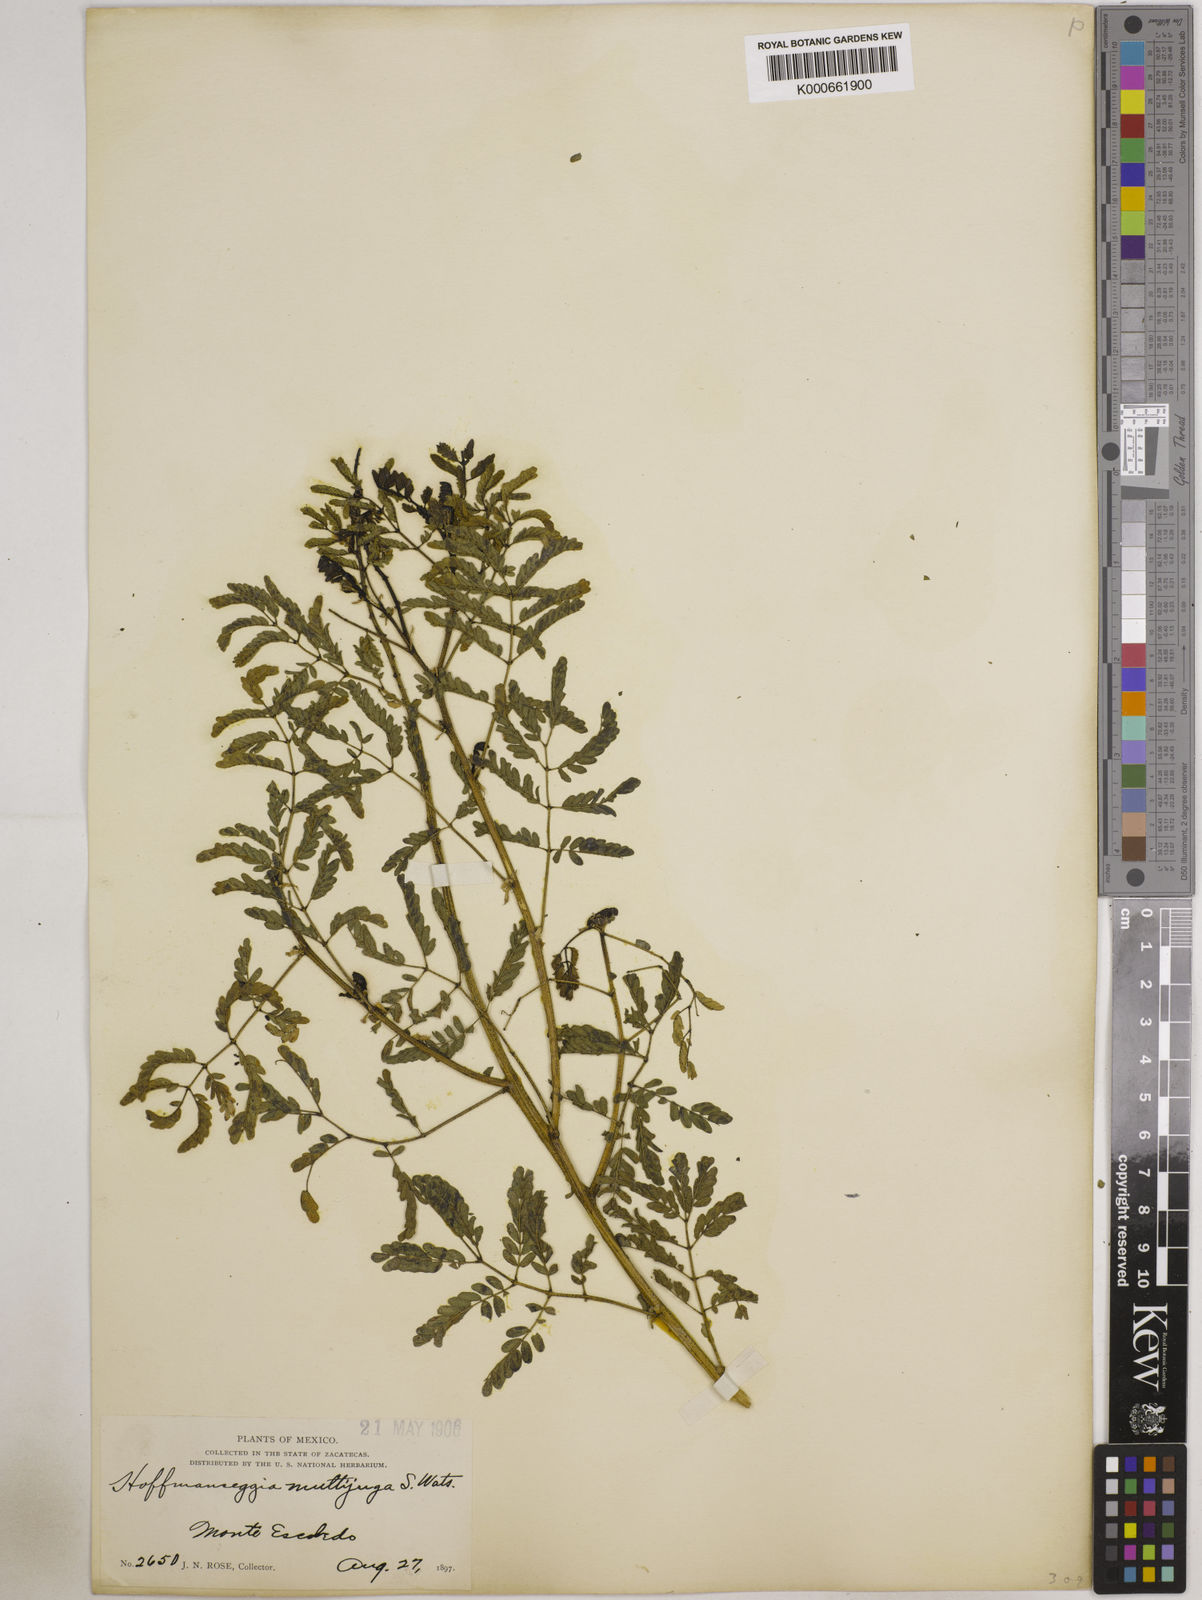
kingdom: Plantae
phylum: Tracheophyta
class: Magnoliopsida
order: Fabales
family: Fabaceae
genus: Pomaria
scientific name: Pomaria multijuga
